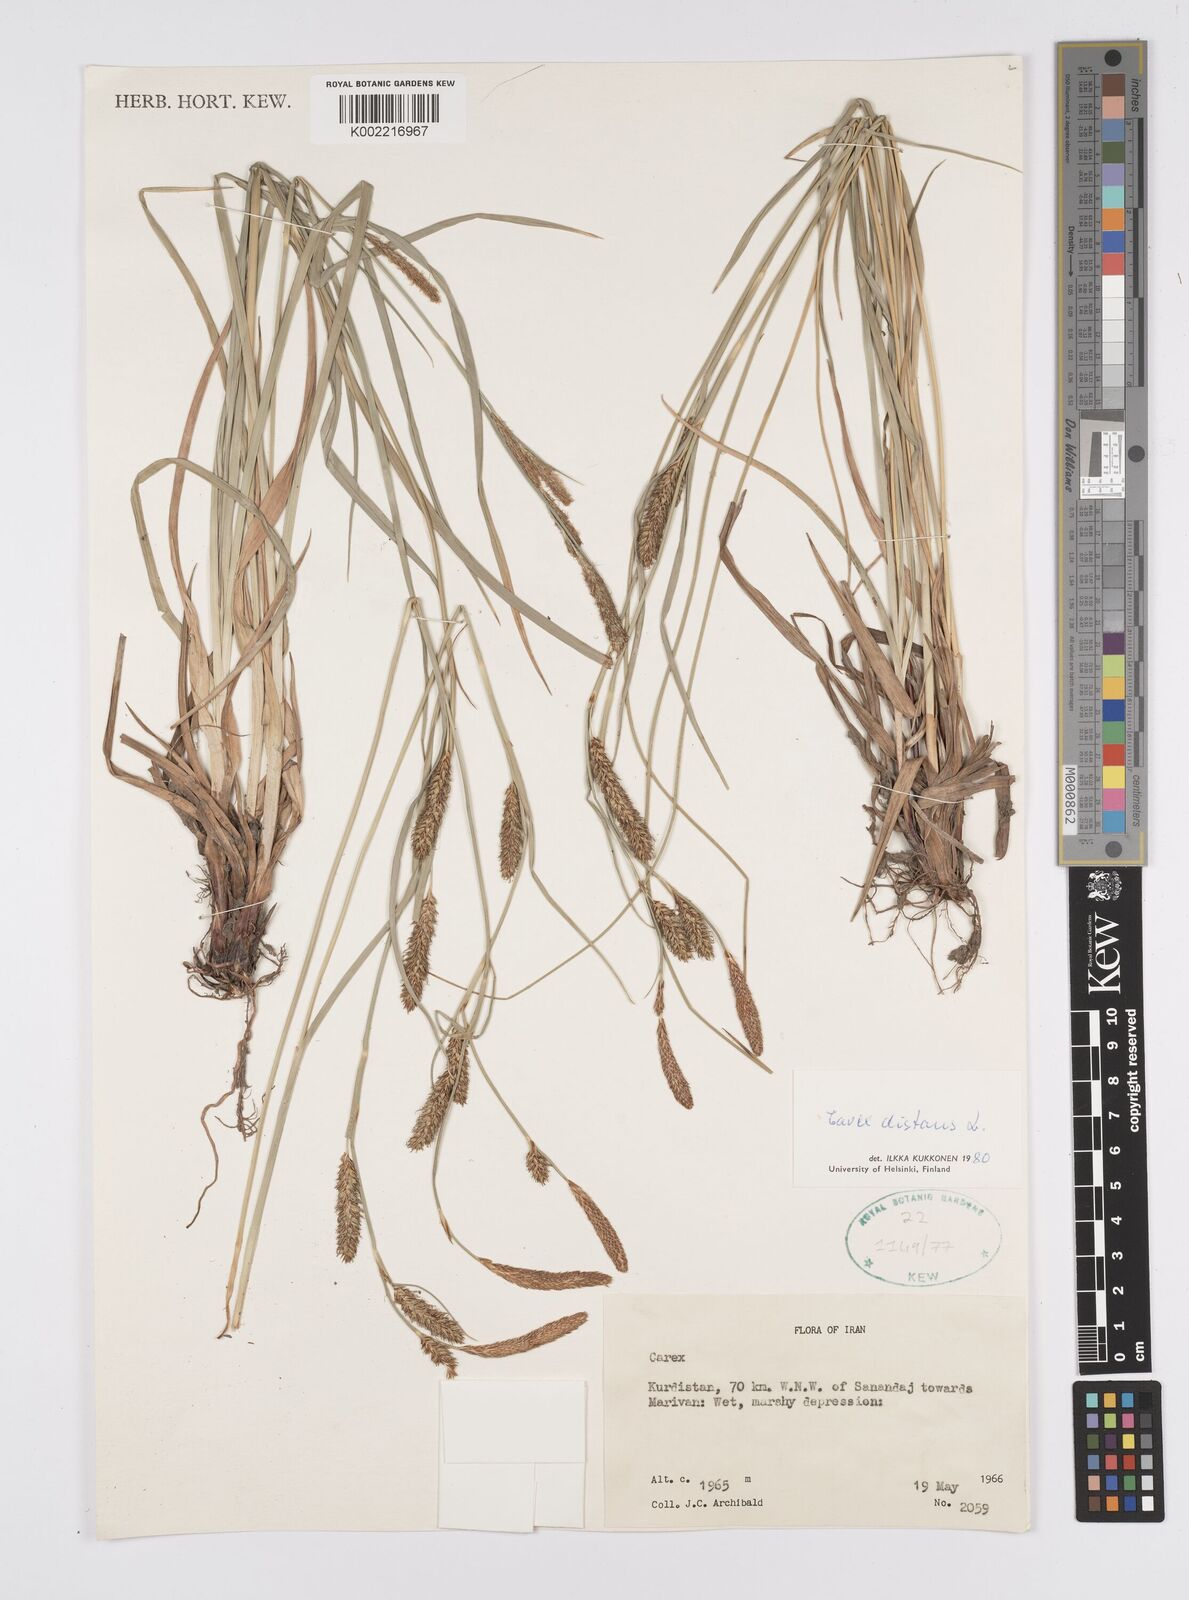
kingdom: Plantae
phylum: Tracheophyta
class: Liliopsida
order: Poales
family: Cyperaceae
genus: Carex
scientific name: Carex distans
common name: Distant sedge
